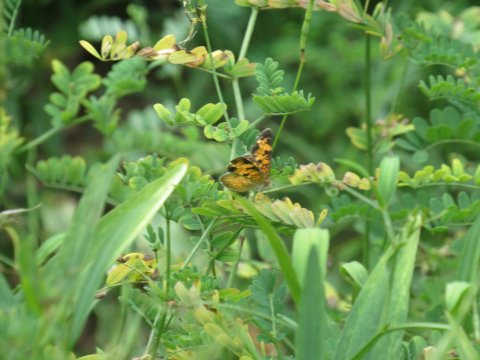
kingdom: Animalia
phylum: Arthropoda
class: Insecta
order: Lepidoptera
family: Nymphalidae
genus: Phyciodes
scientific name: Phyciodes tharos
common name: Pearl Crescent
